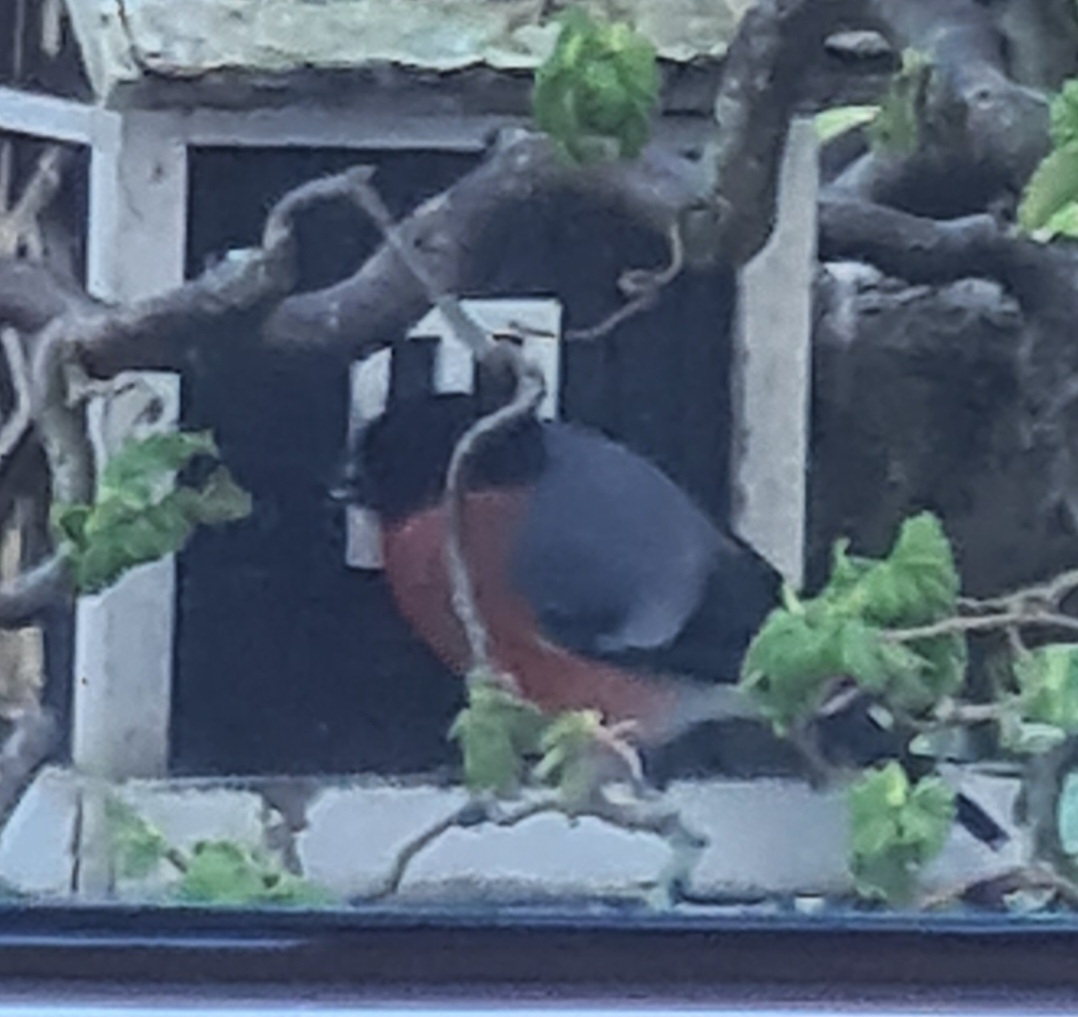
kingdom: Animalia
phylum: Chordata
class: Aves
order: Passeriformes
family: Fringillidae
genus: Pyrrhula
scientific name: Pyrrhula pyrrhula
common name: Dompap
